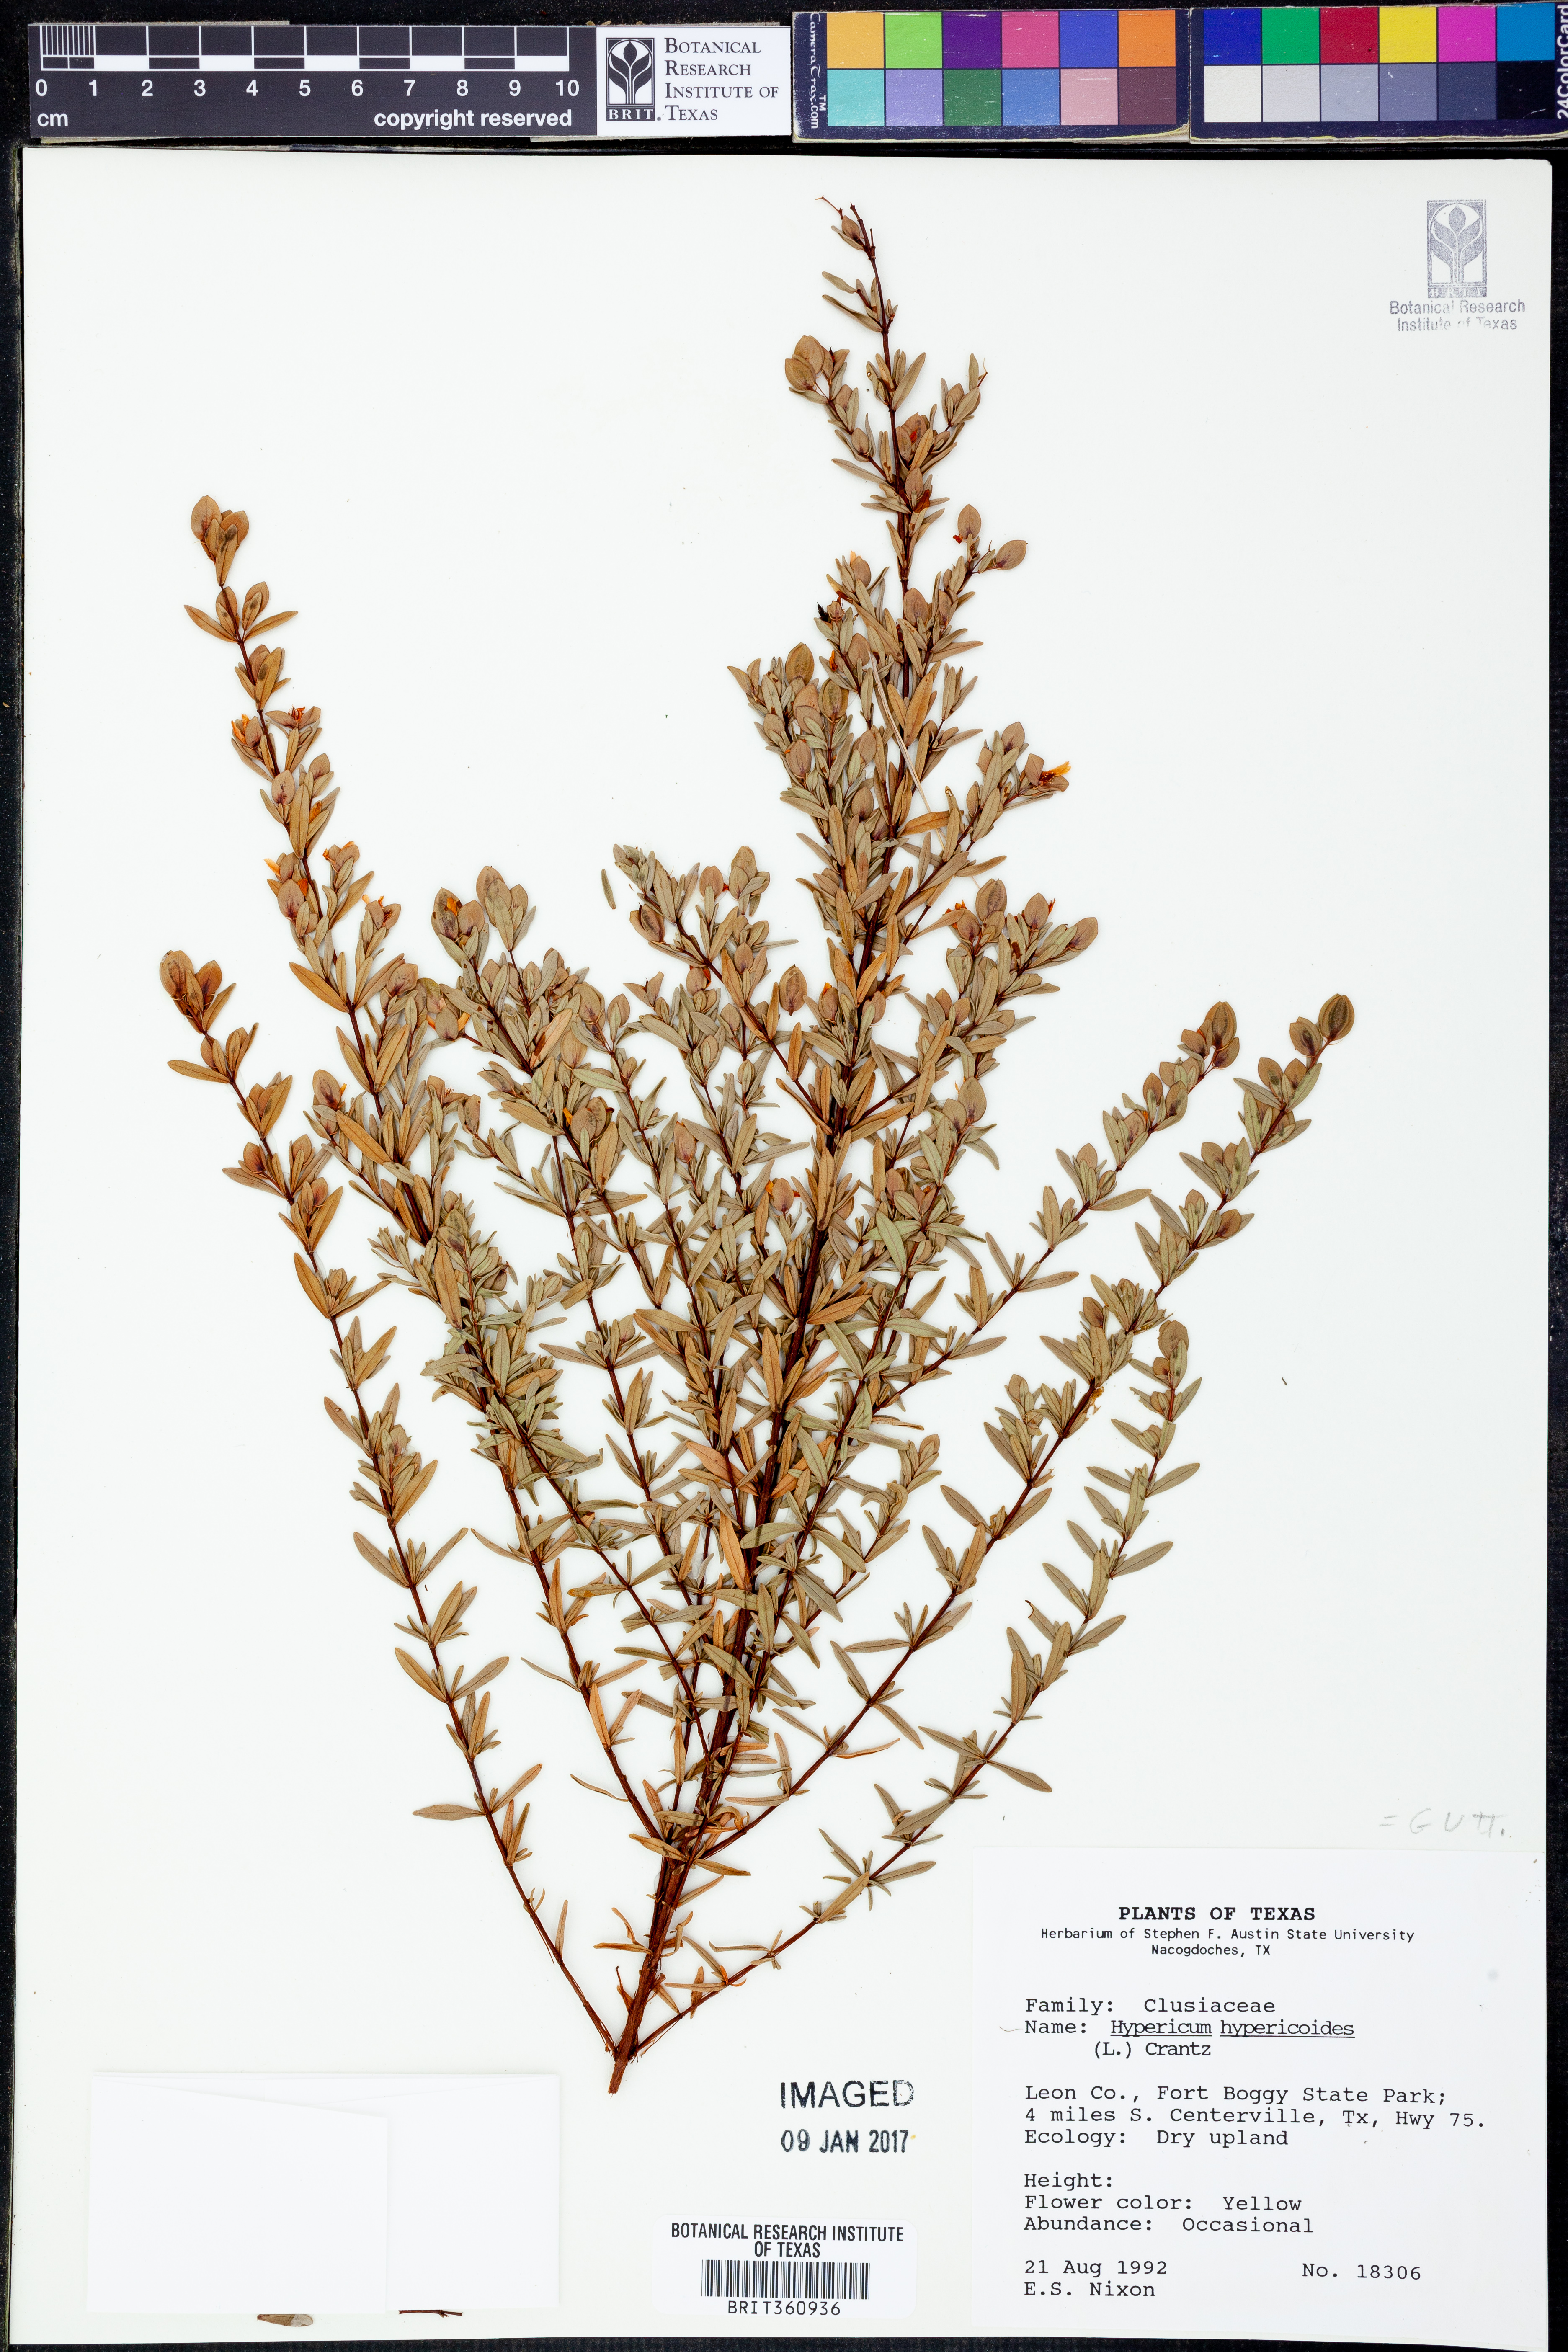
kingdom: Plantae
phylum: Tracheophyta
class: Magnoliopsida
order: Malpighiales
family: Hypericaceae
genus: Hypericum
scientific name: Hypericum hypericoides
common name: St. andrew's cross
